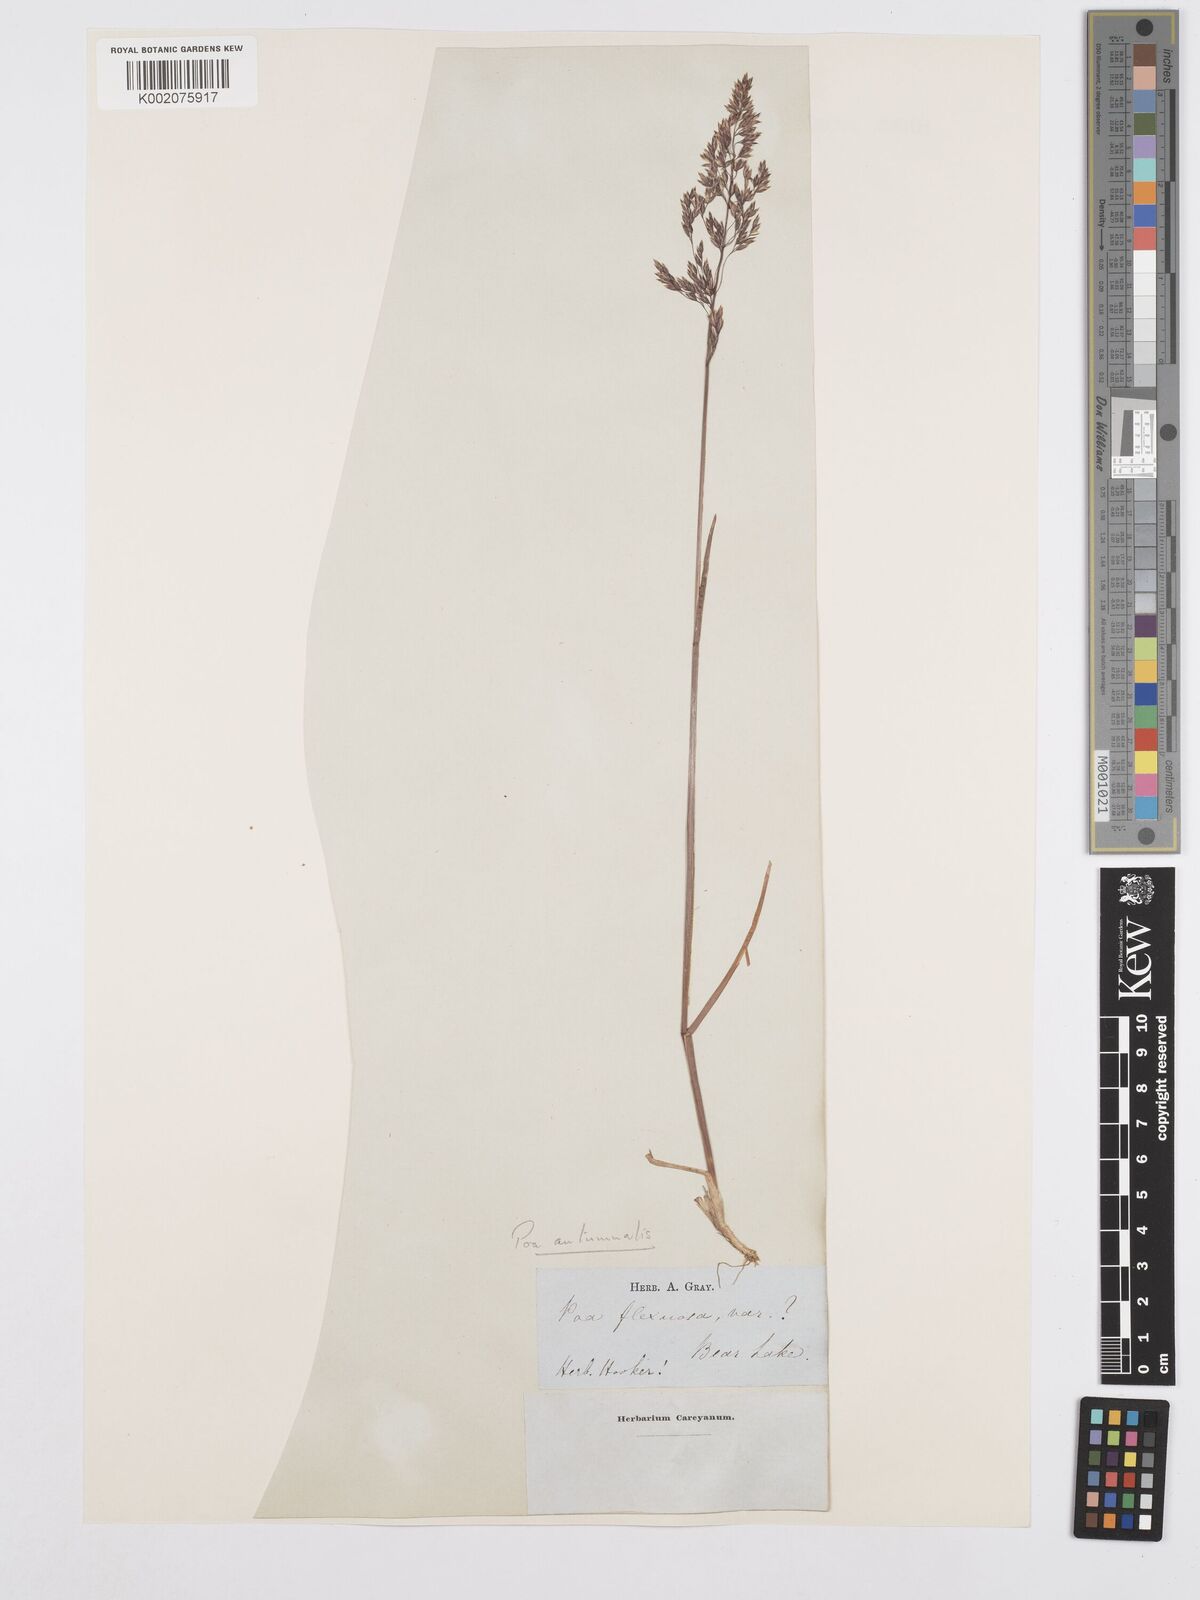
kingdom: Plantae
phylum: Tracheophyta
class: Liliopsida
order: Poales
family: Poaceae
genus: Poa
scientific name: Poa autumnalis
